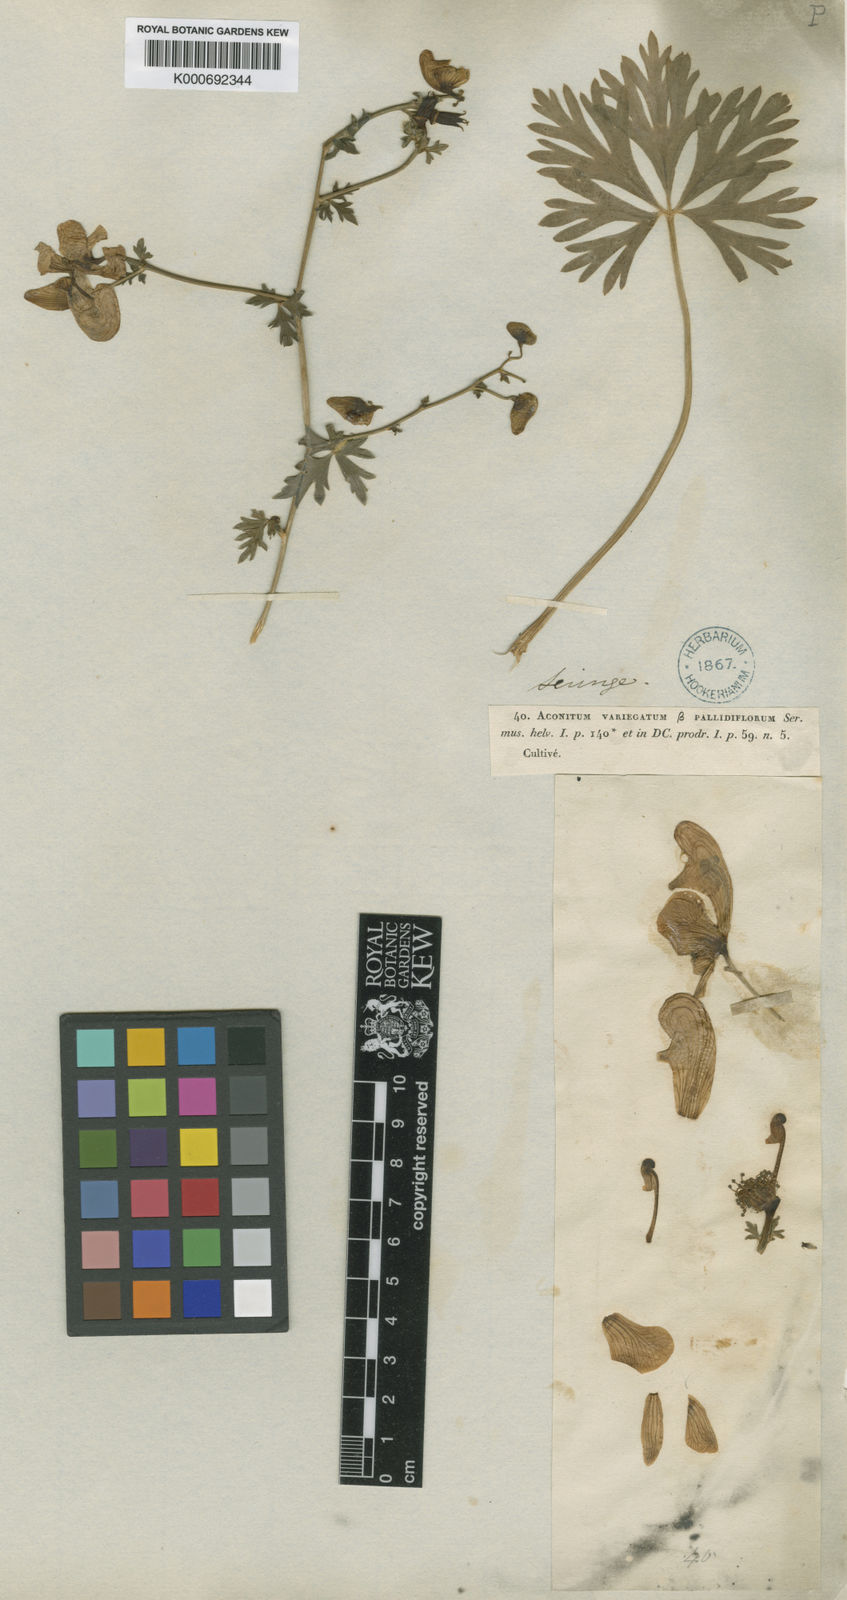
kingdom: Plantae
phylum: Tracheophyta
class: Magnoliopsida
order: Ranunculales
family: Ranunculaceae
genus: Aconitum
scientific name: Aconitum variegatum
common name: Manchurian monkshood
